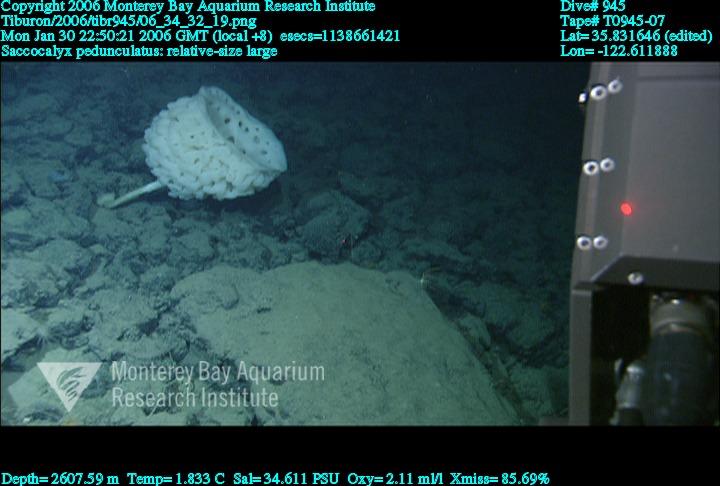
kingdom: Animalia
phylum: Porifera
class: Hexactinellida
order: Lyssacinosida
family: Euplectellidae
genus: Saccocalyx
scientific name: Saccocalyx pedunculatus
